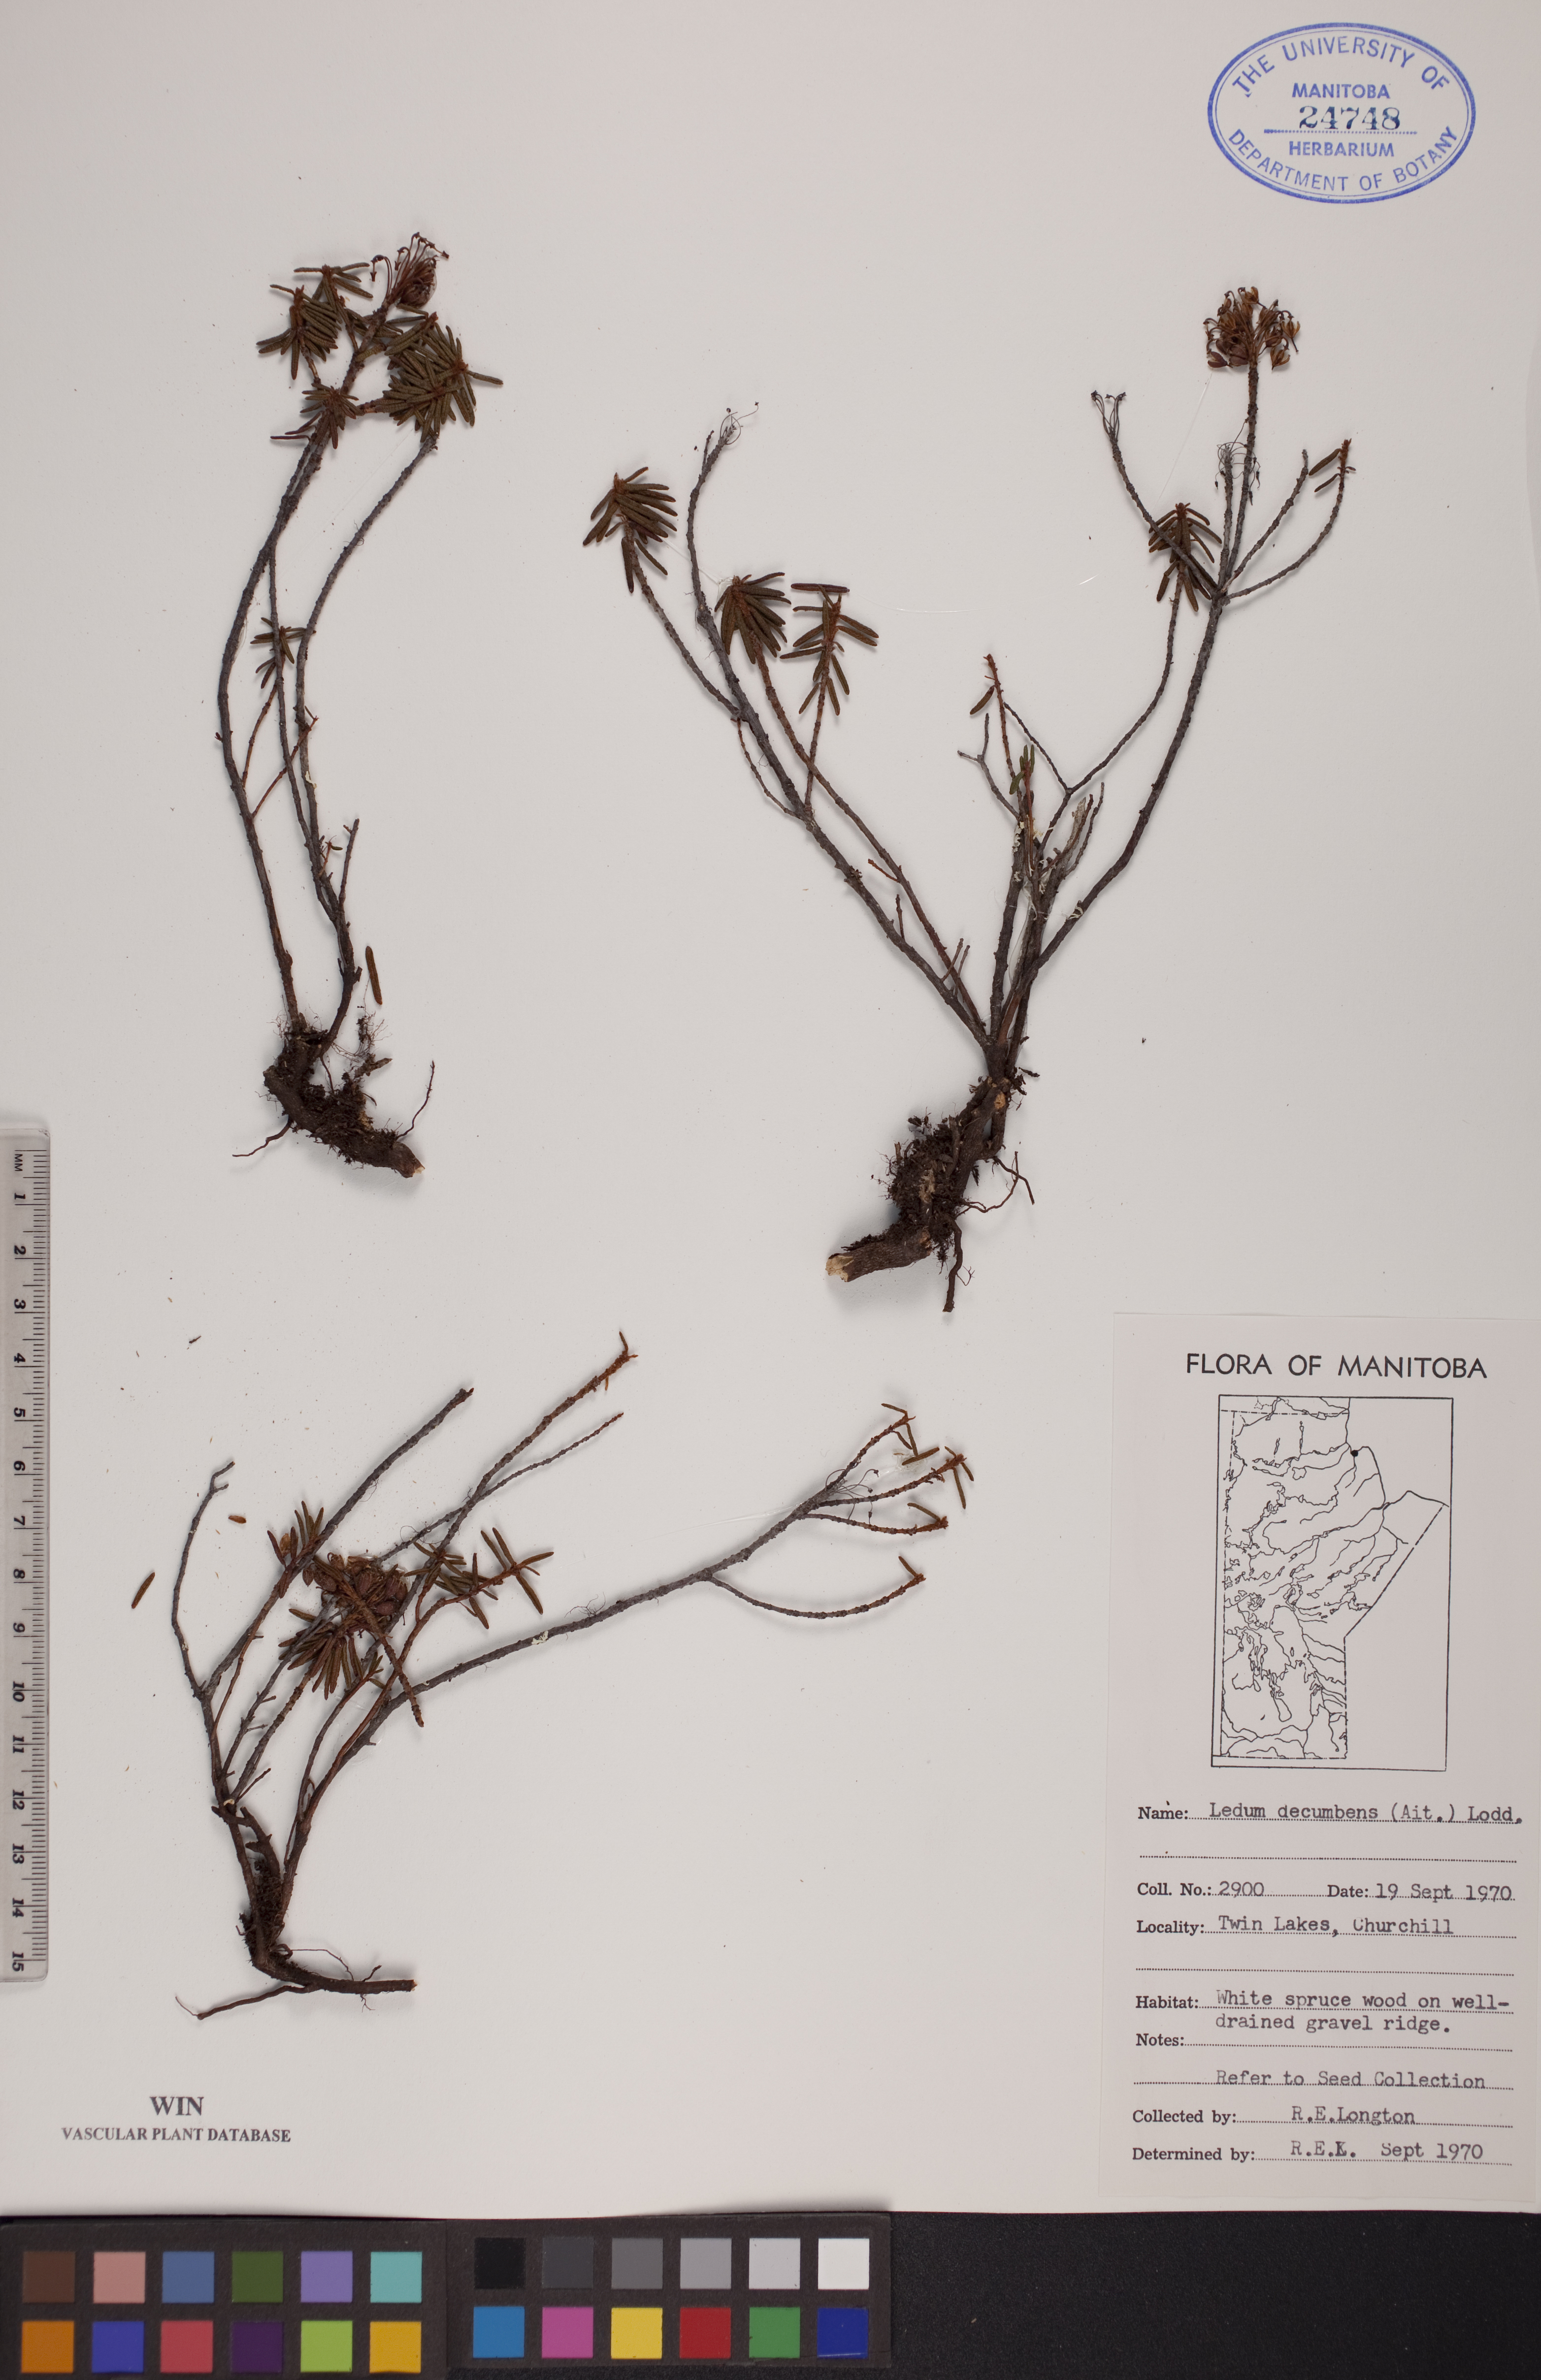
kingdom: Plantae
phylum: Tracheophyta
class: Magnoliopsida
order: Ericales
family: Ericaceae
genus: Rhododendron
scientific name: Rhododendron tomentosum
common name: Marsh labrador tea
